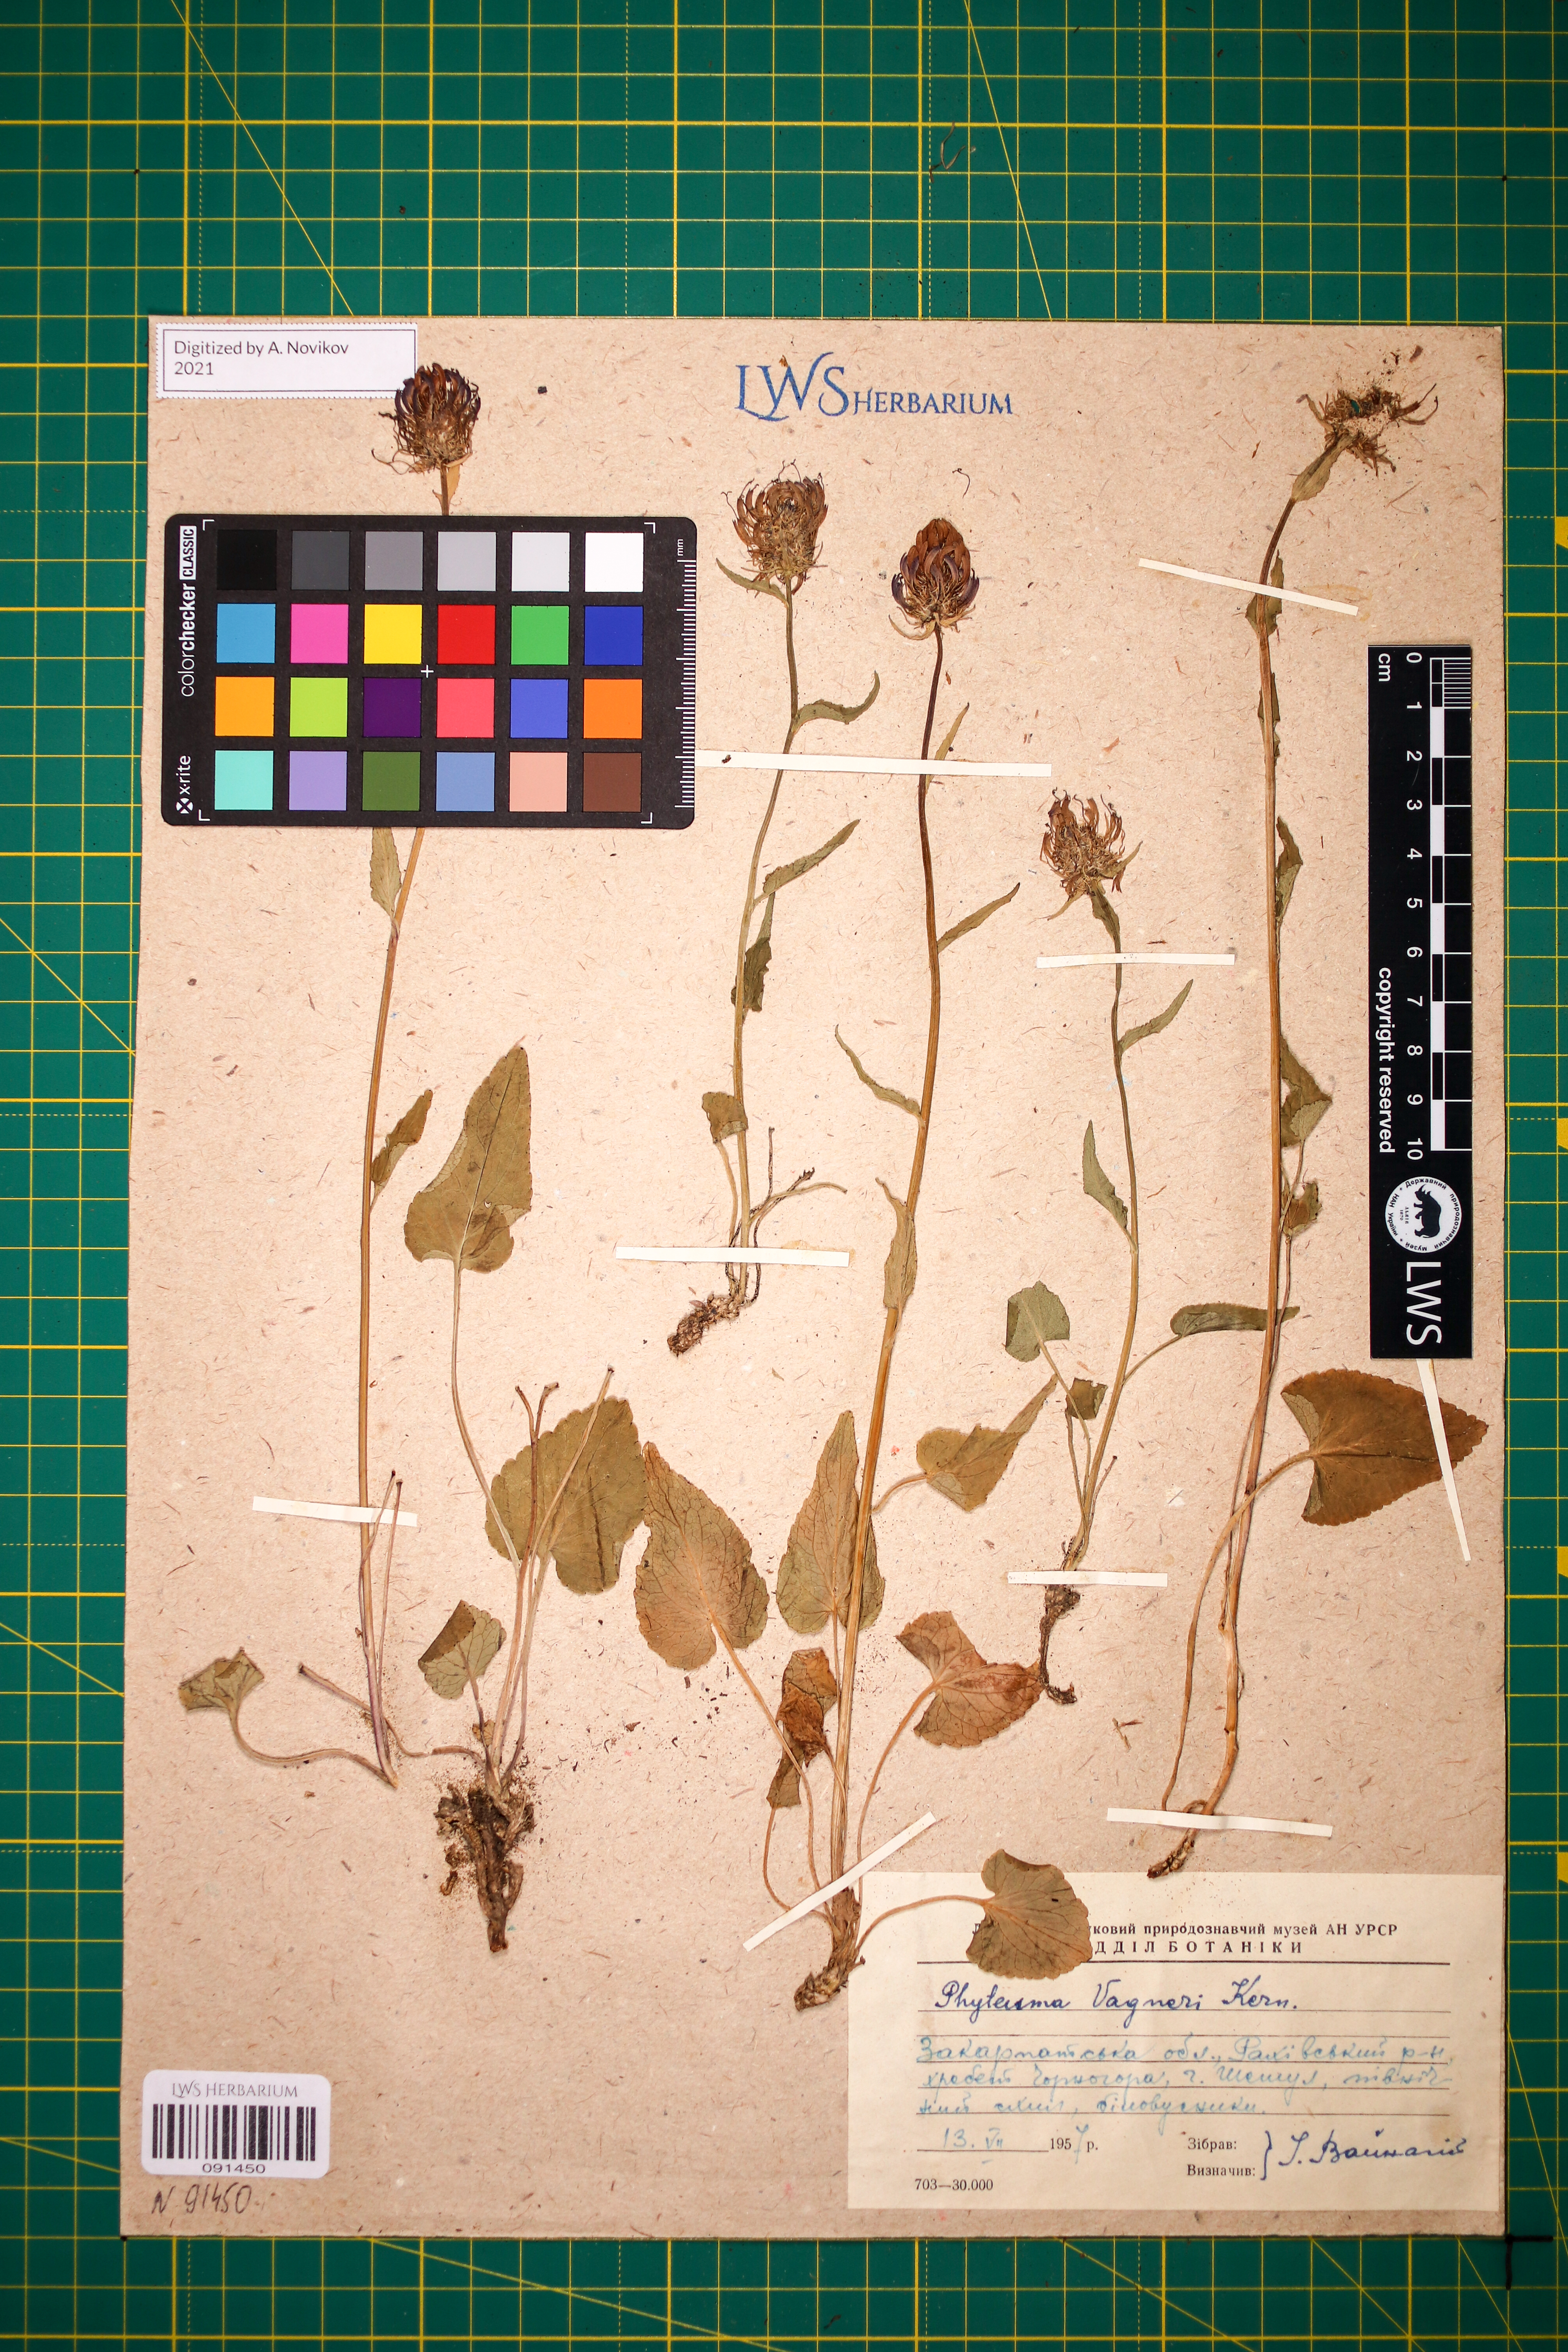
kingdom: Plantae
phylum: Tracheophyta
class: Magnoliopsida
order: Asterales
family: Campanulaceae
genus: Phyteuma
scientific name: Phyteuma vagneri
